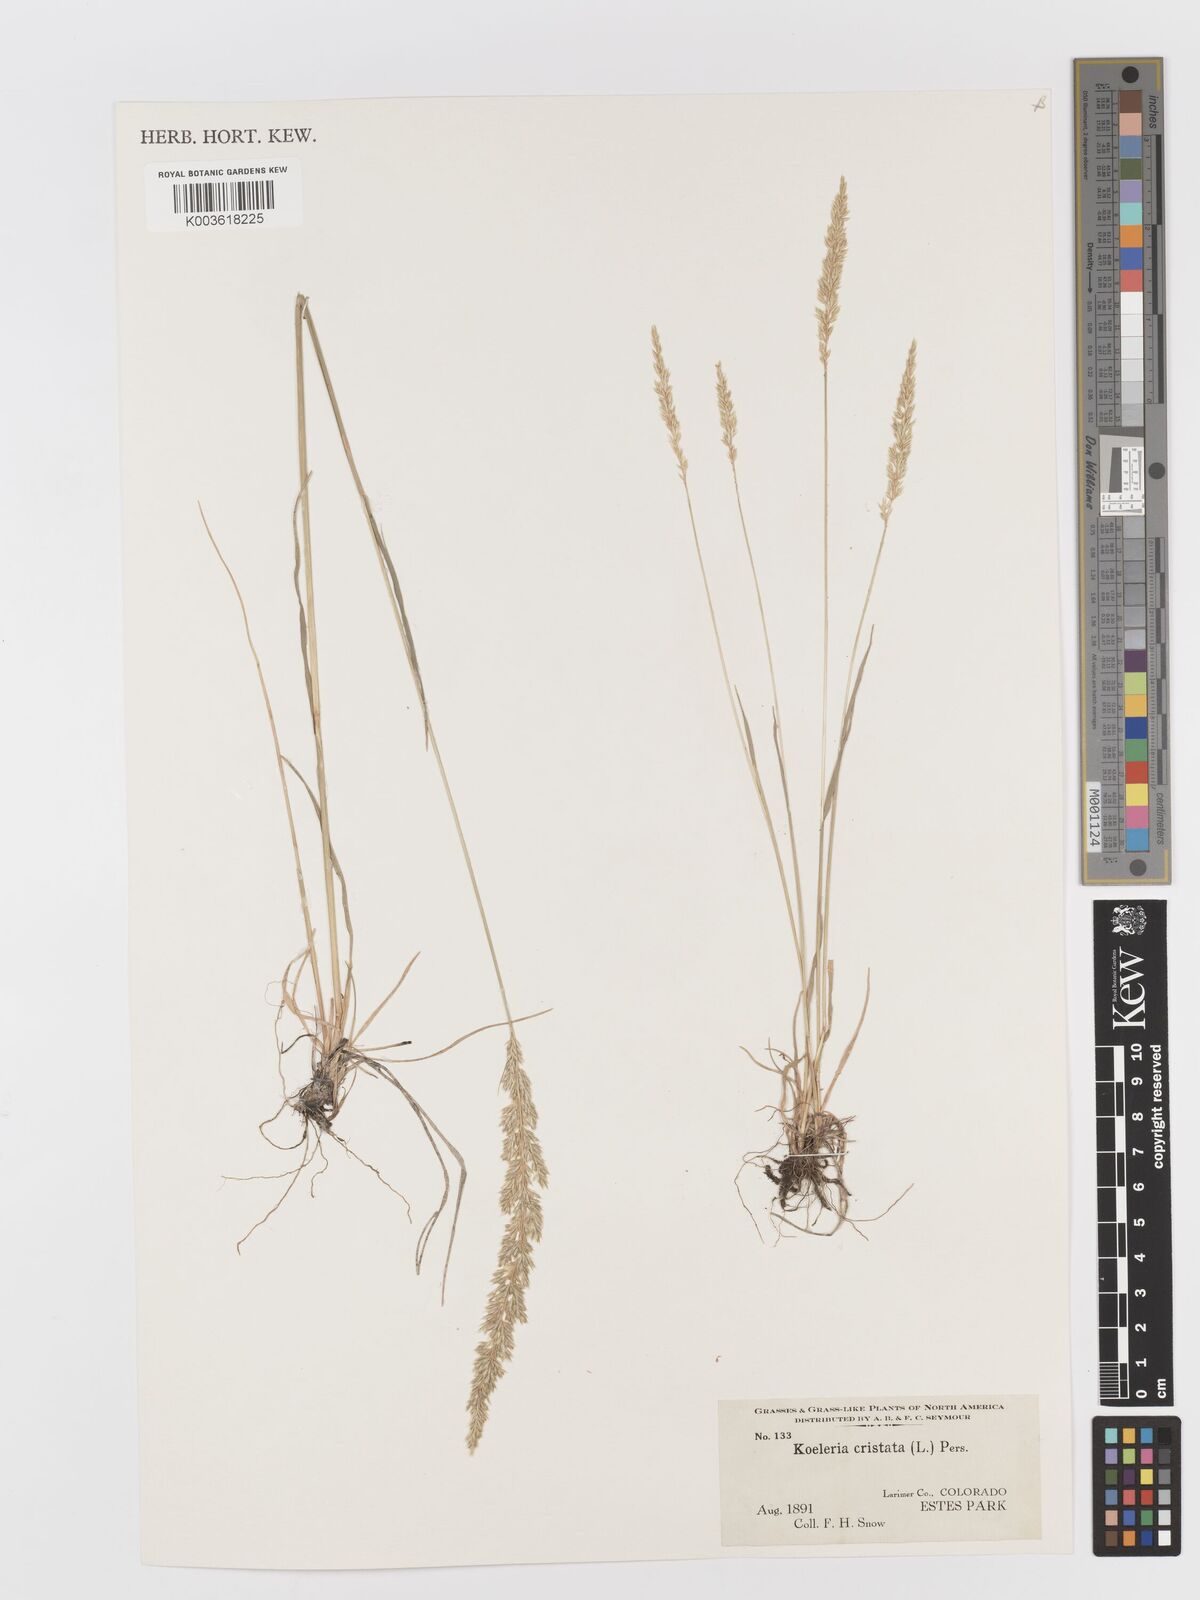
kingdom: Plantae
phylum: Tracheophyta
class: Liliopsida
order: Poales
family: Poaceae
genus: Koeleria
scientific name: Koeleria macrantha
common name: Crested hair-grass
